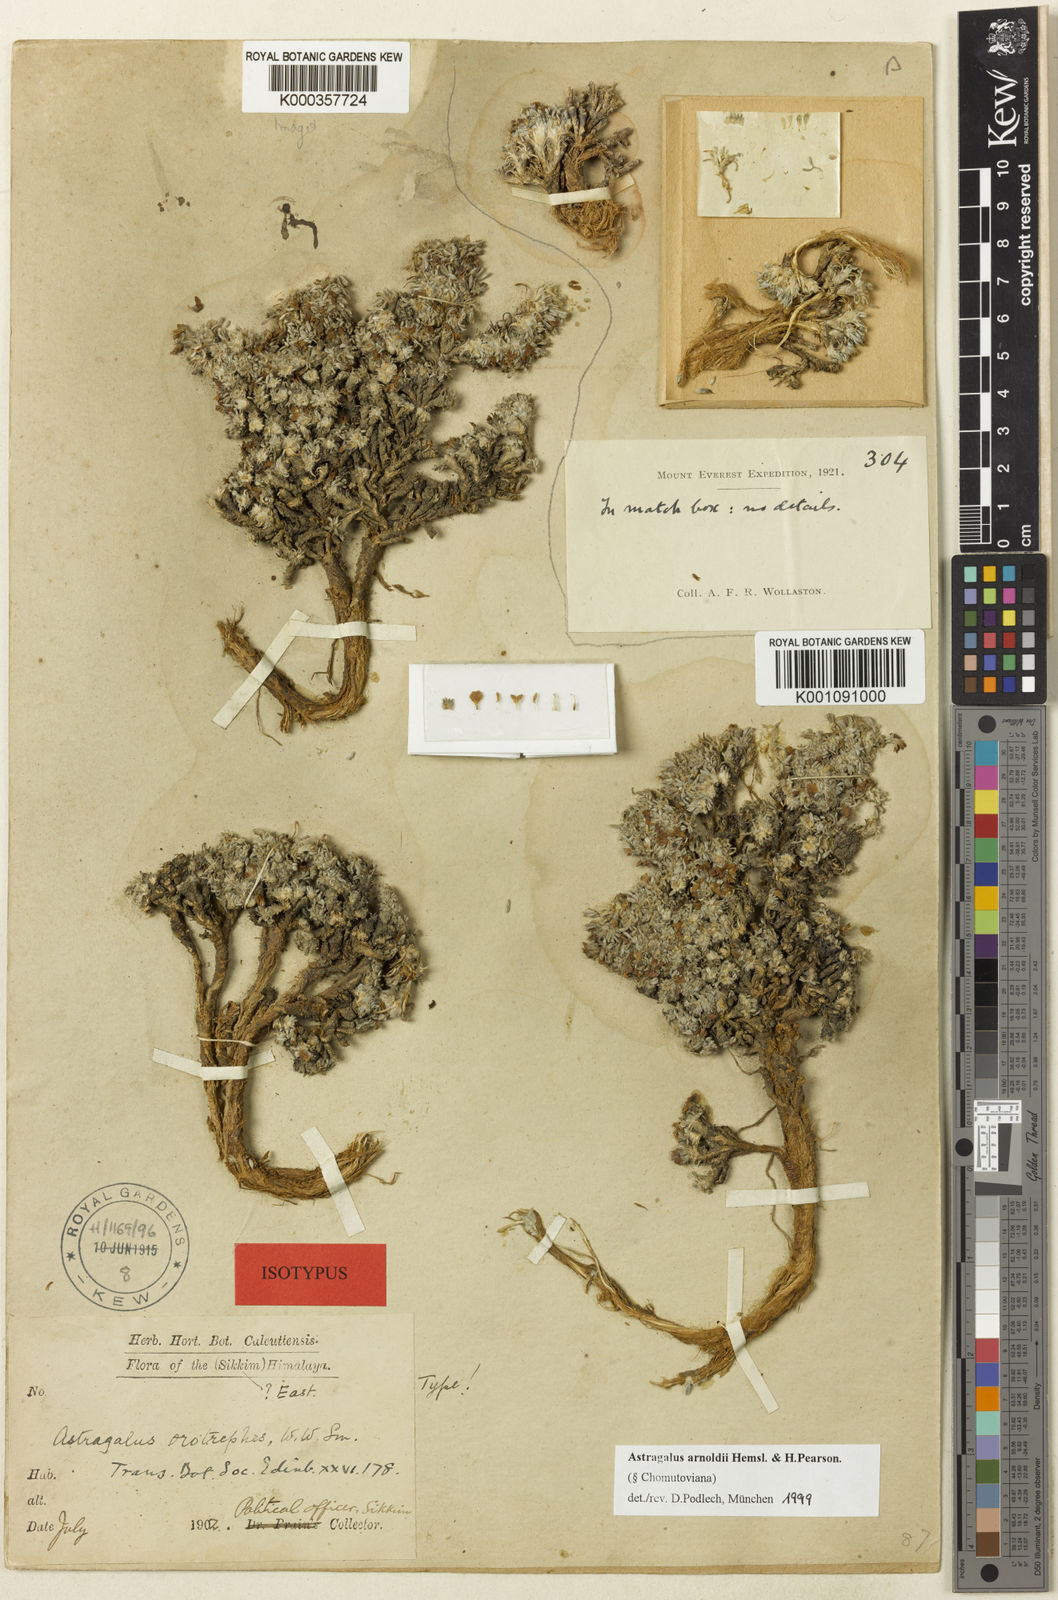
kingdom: Plantae
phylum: Tracheophyta
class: Magnoliopsida
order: Fabales
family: Fabaceae
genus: Astragalus
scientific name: Astragalus
